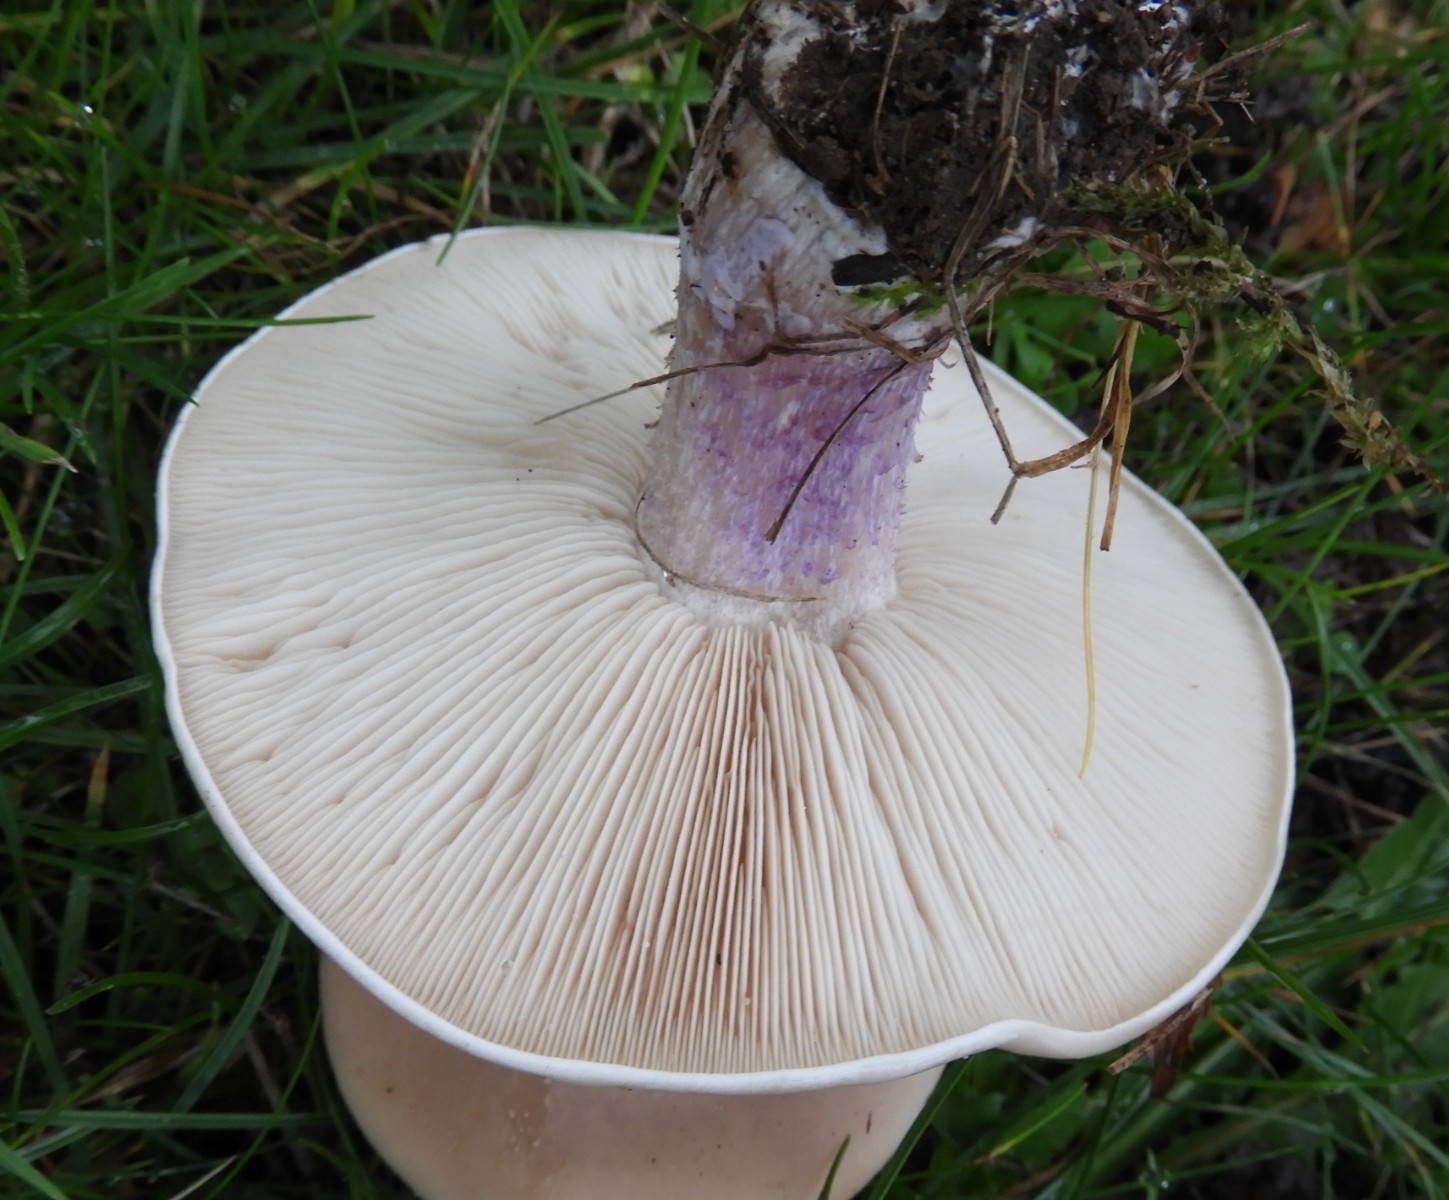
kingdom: Fungi
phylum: Basidiomycota
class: Agaricomycetes
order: Agaricales
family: Tricholomataceae
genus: Lepista
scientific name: Lepista personata
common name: bleg hekseringshat
